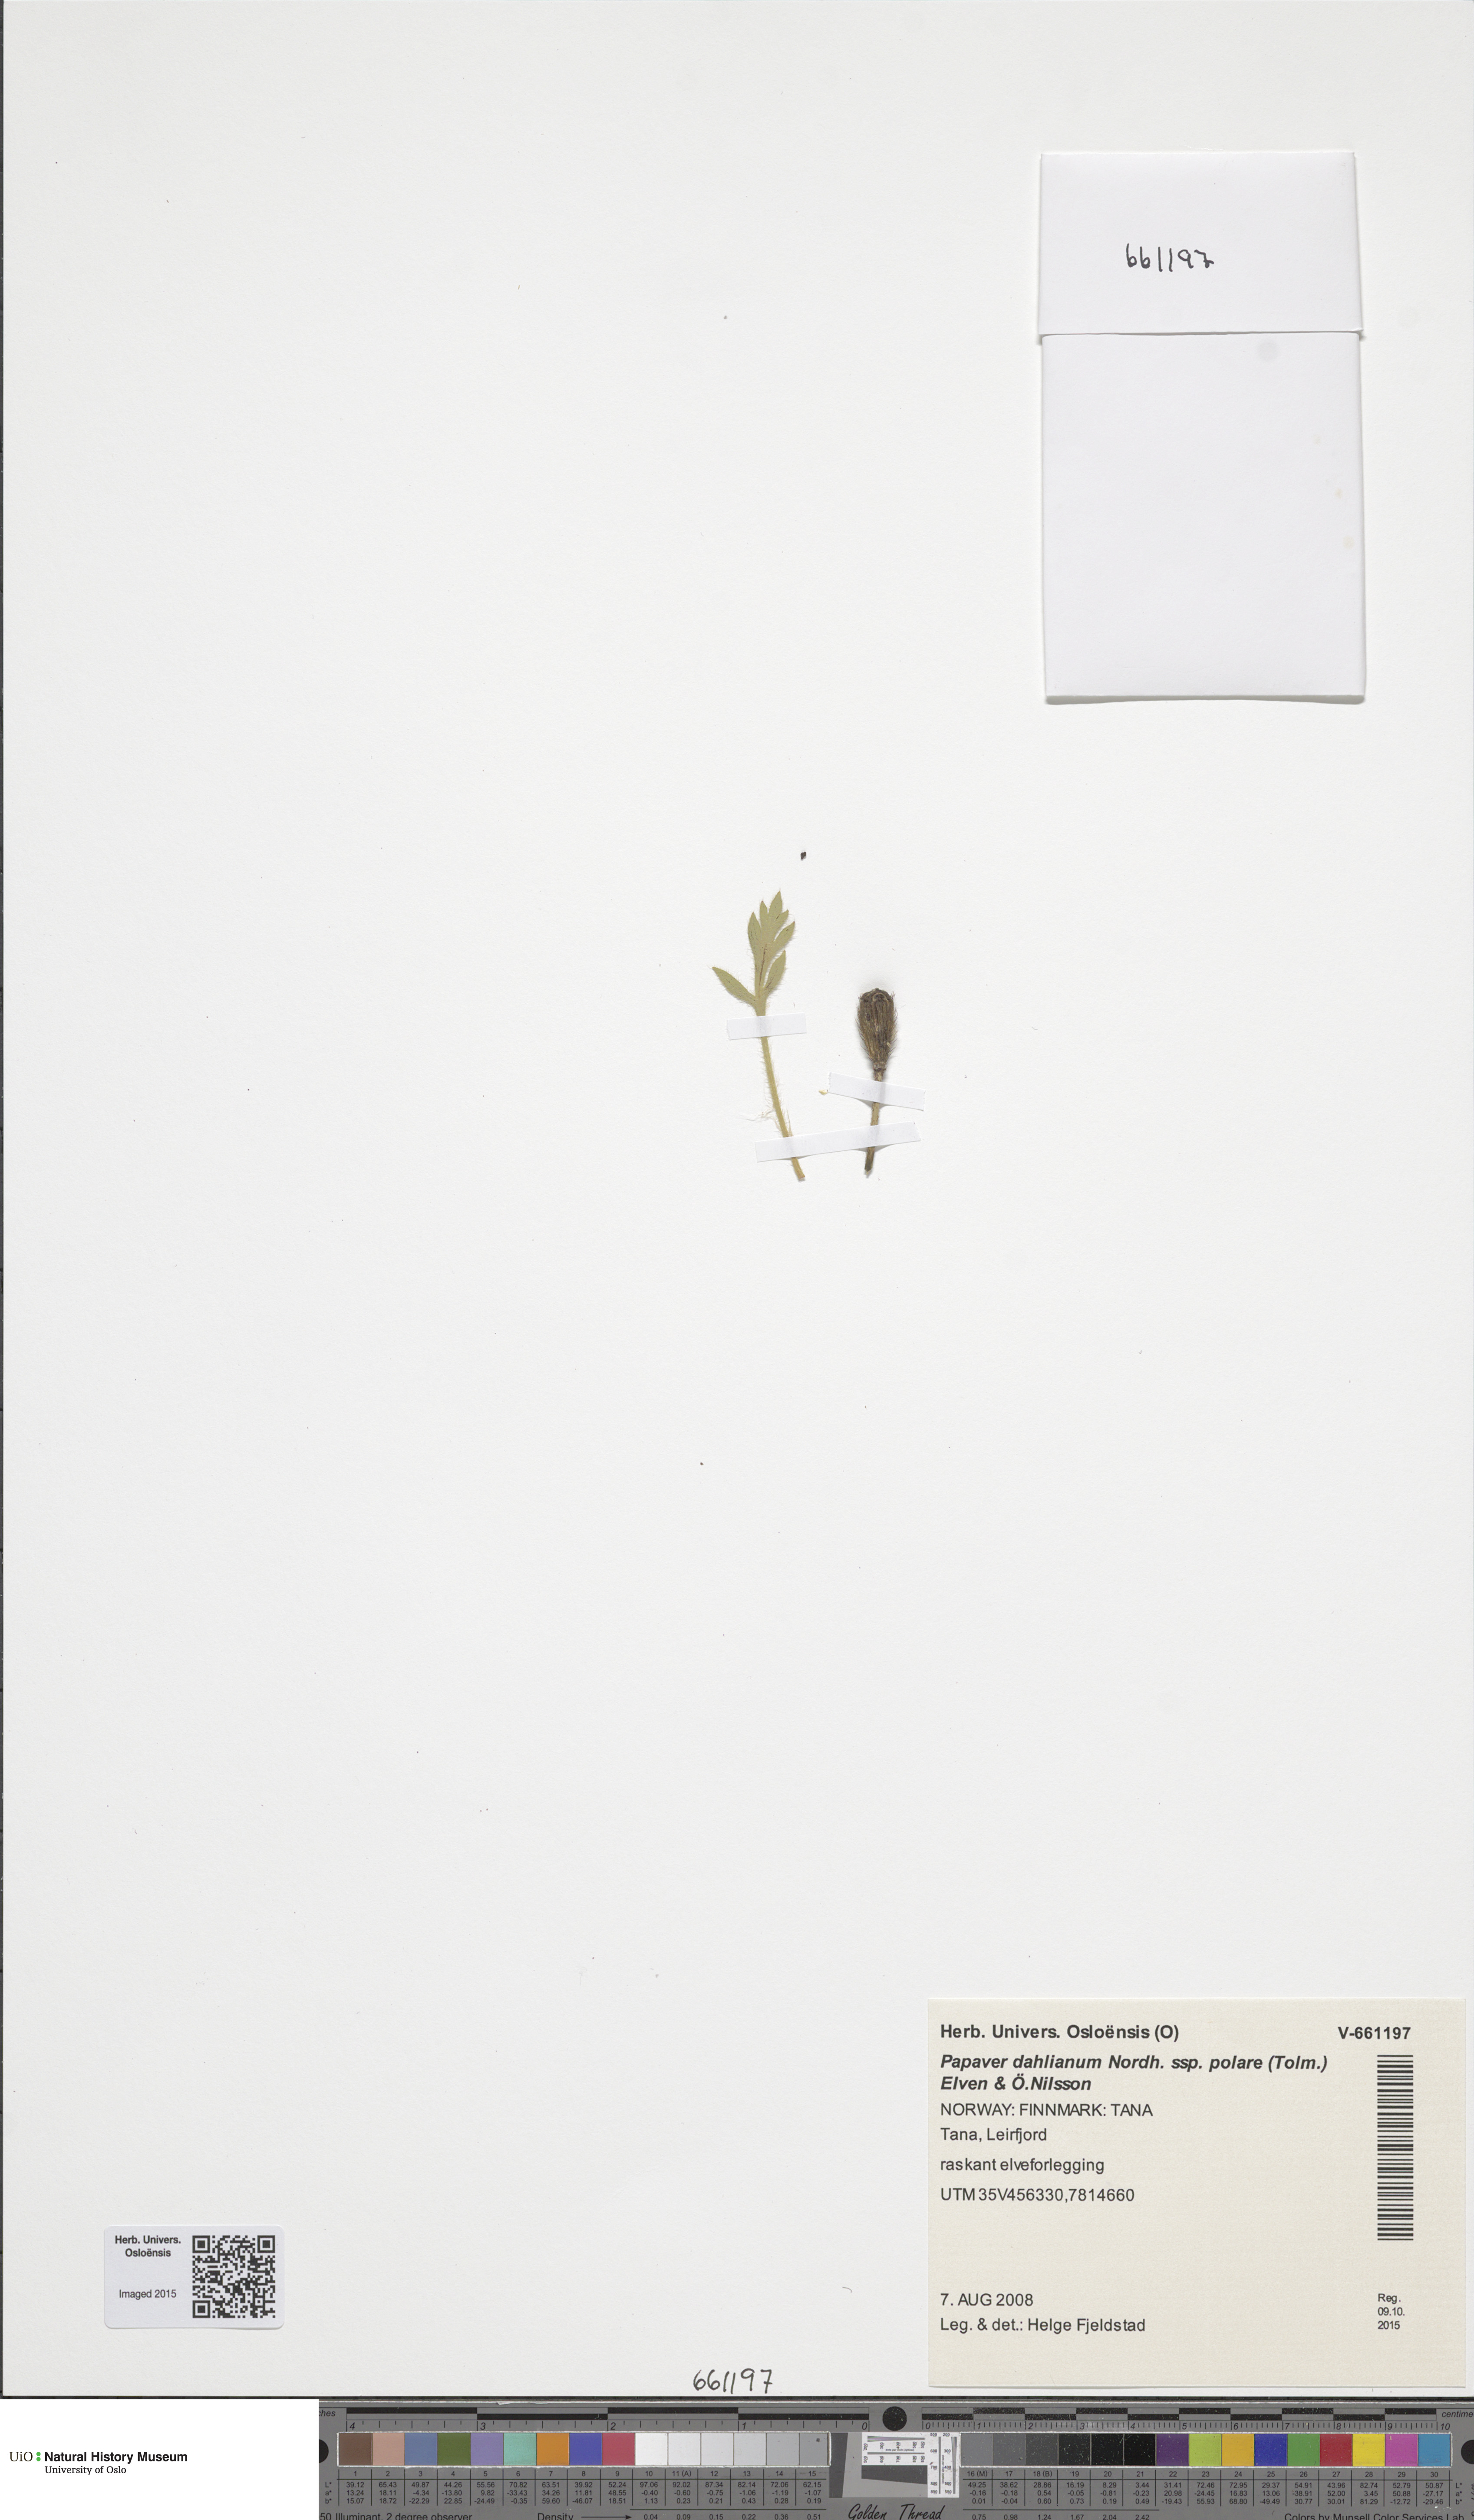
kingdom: Plantae
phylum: Tracheophyta
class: Magnoliopsida
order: Ranunculales
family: Papaveraceae
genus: Papaver
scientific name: Papaver radicatum
